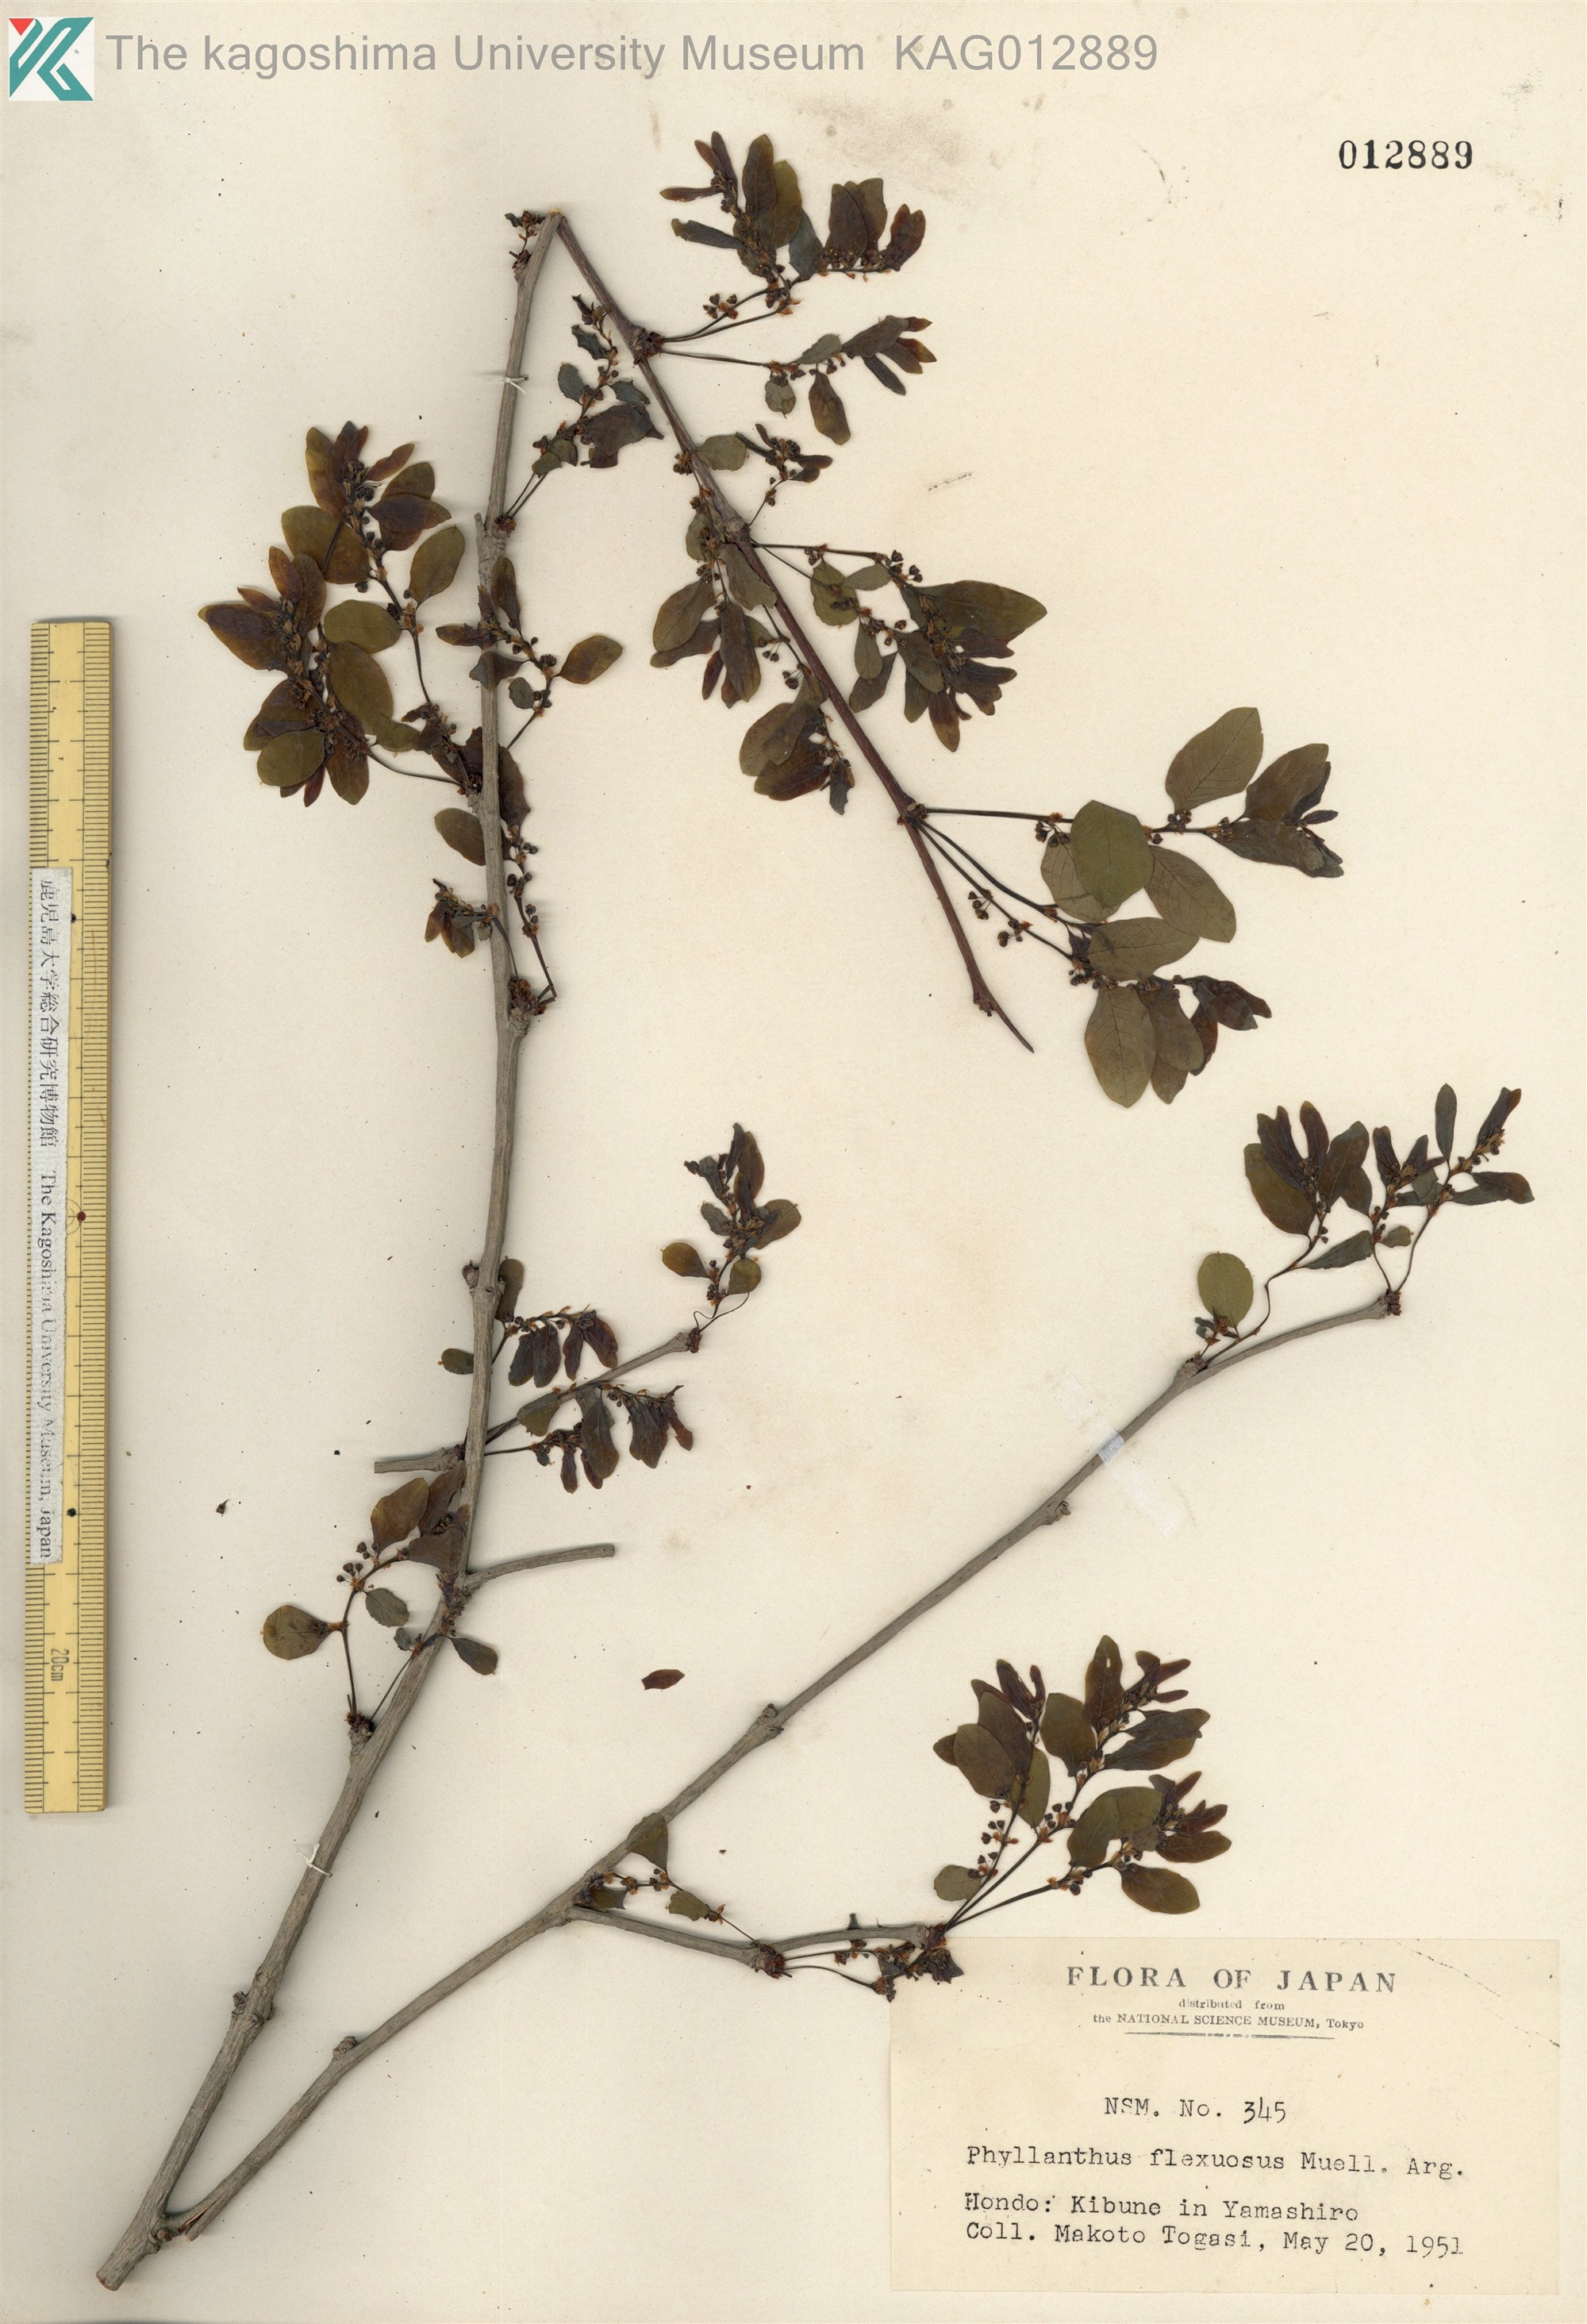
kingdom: Plantae
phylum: Tracheophyta
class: Magnoliopsida
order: Malpighiales
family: Phyllanthaceae
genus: Phyllanthus
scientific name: Phyllanthus flexuosus
